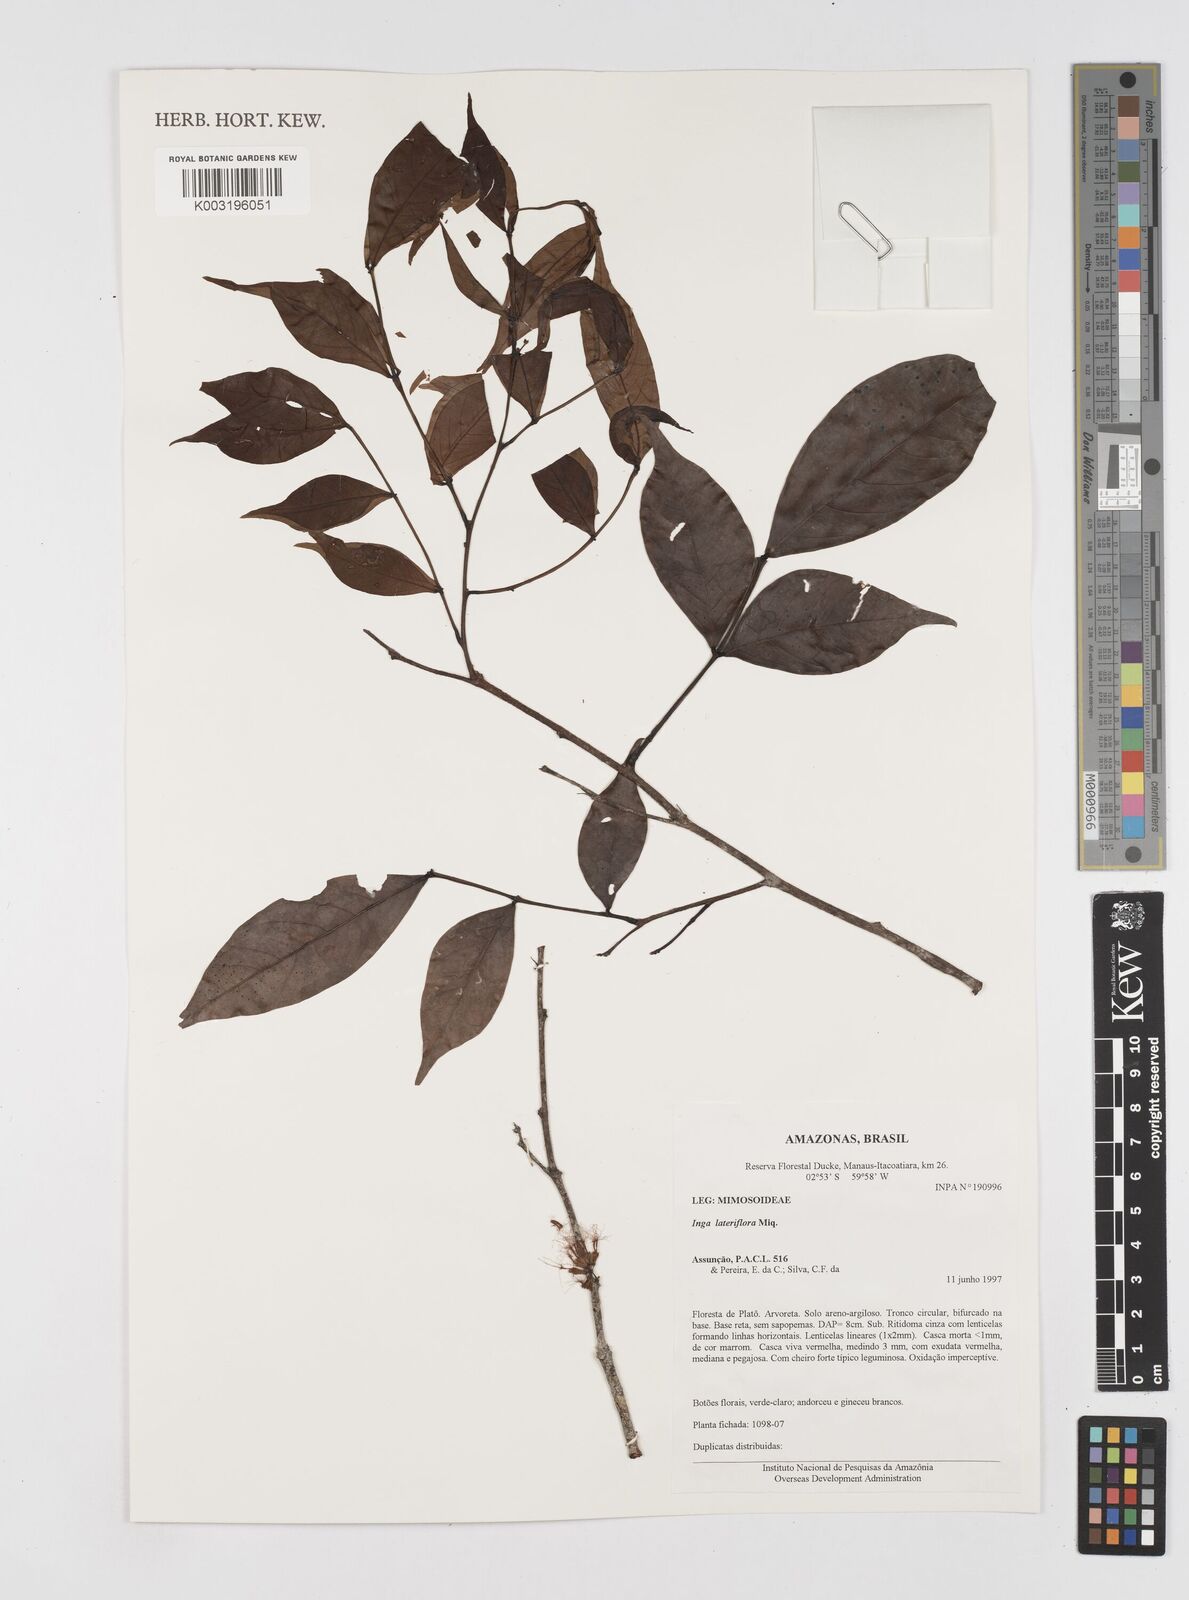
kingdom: Plantae
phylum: Tracheophyta
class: Magnoliopsida
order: Fabales
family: Fabaceae
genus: Inga
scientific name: Inga lateriflora
